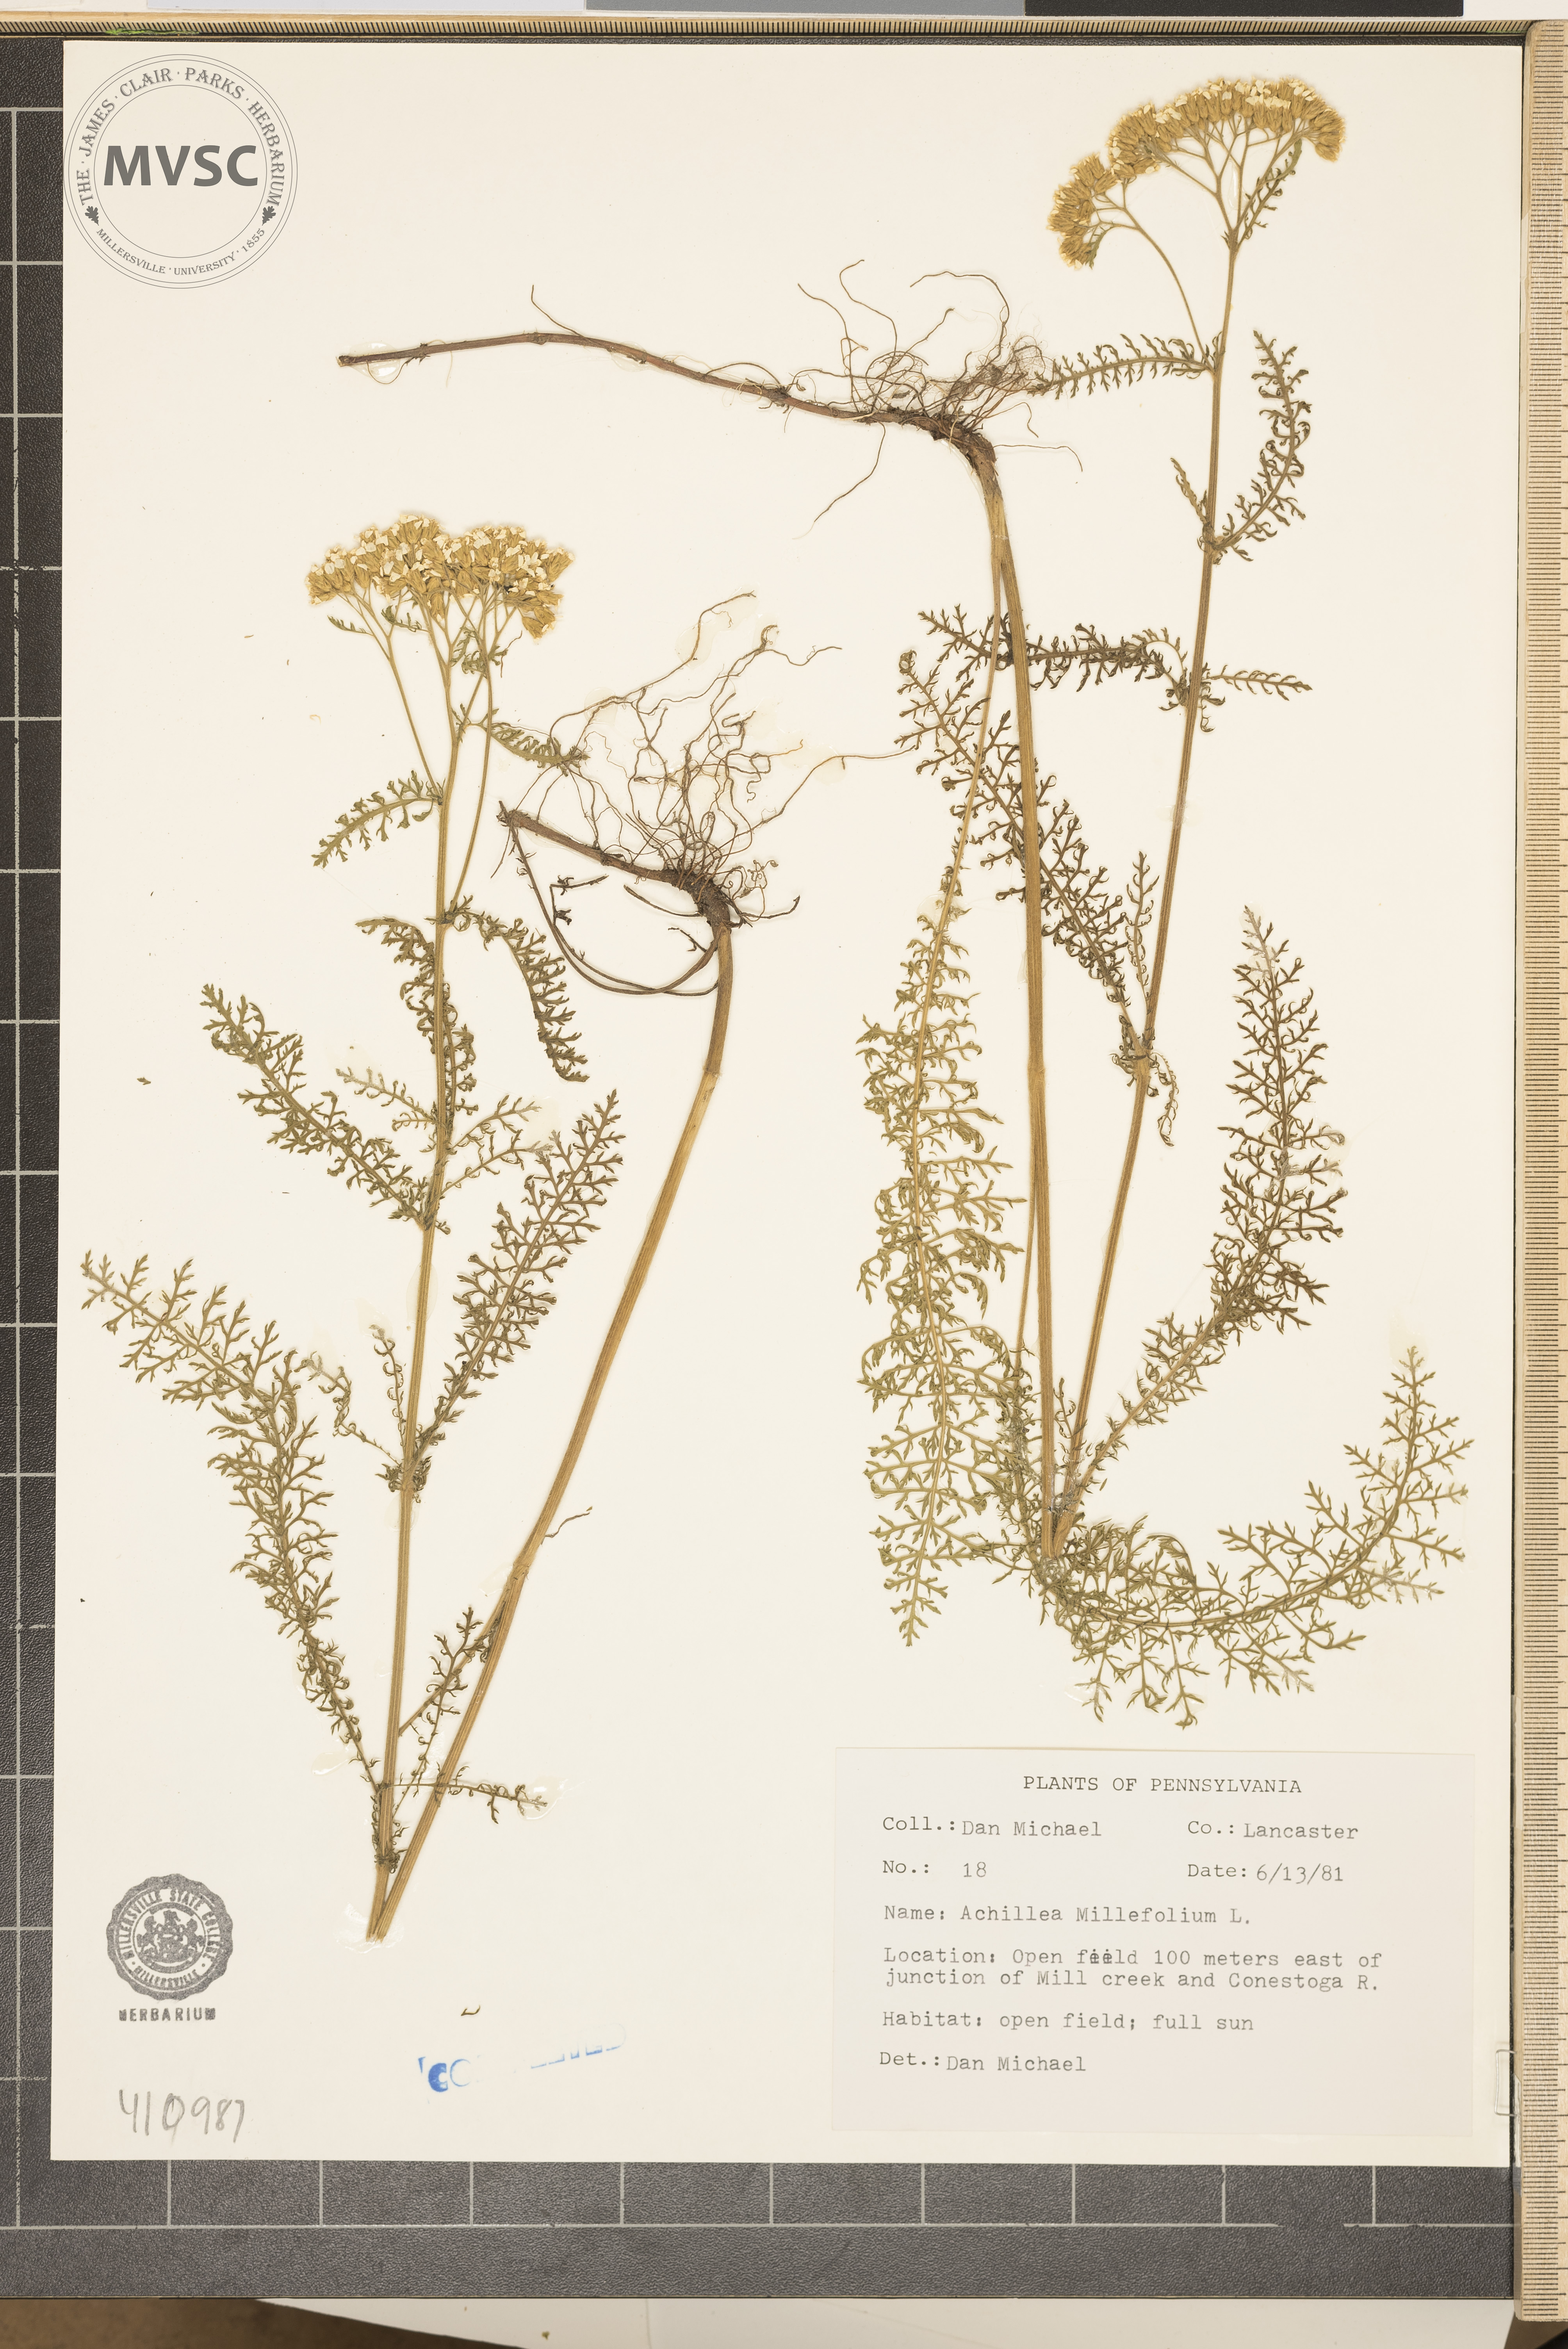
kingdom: Plantae
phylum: Tracheophyta
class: Magnoliopsida
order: Asterales
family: Asteraceae
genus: Achillea
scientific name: Achillea millefolium
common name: Yarrow
